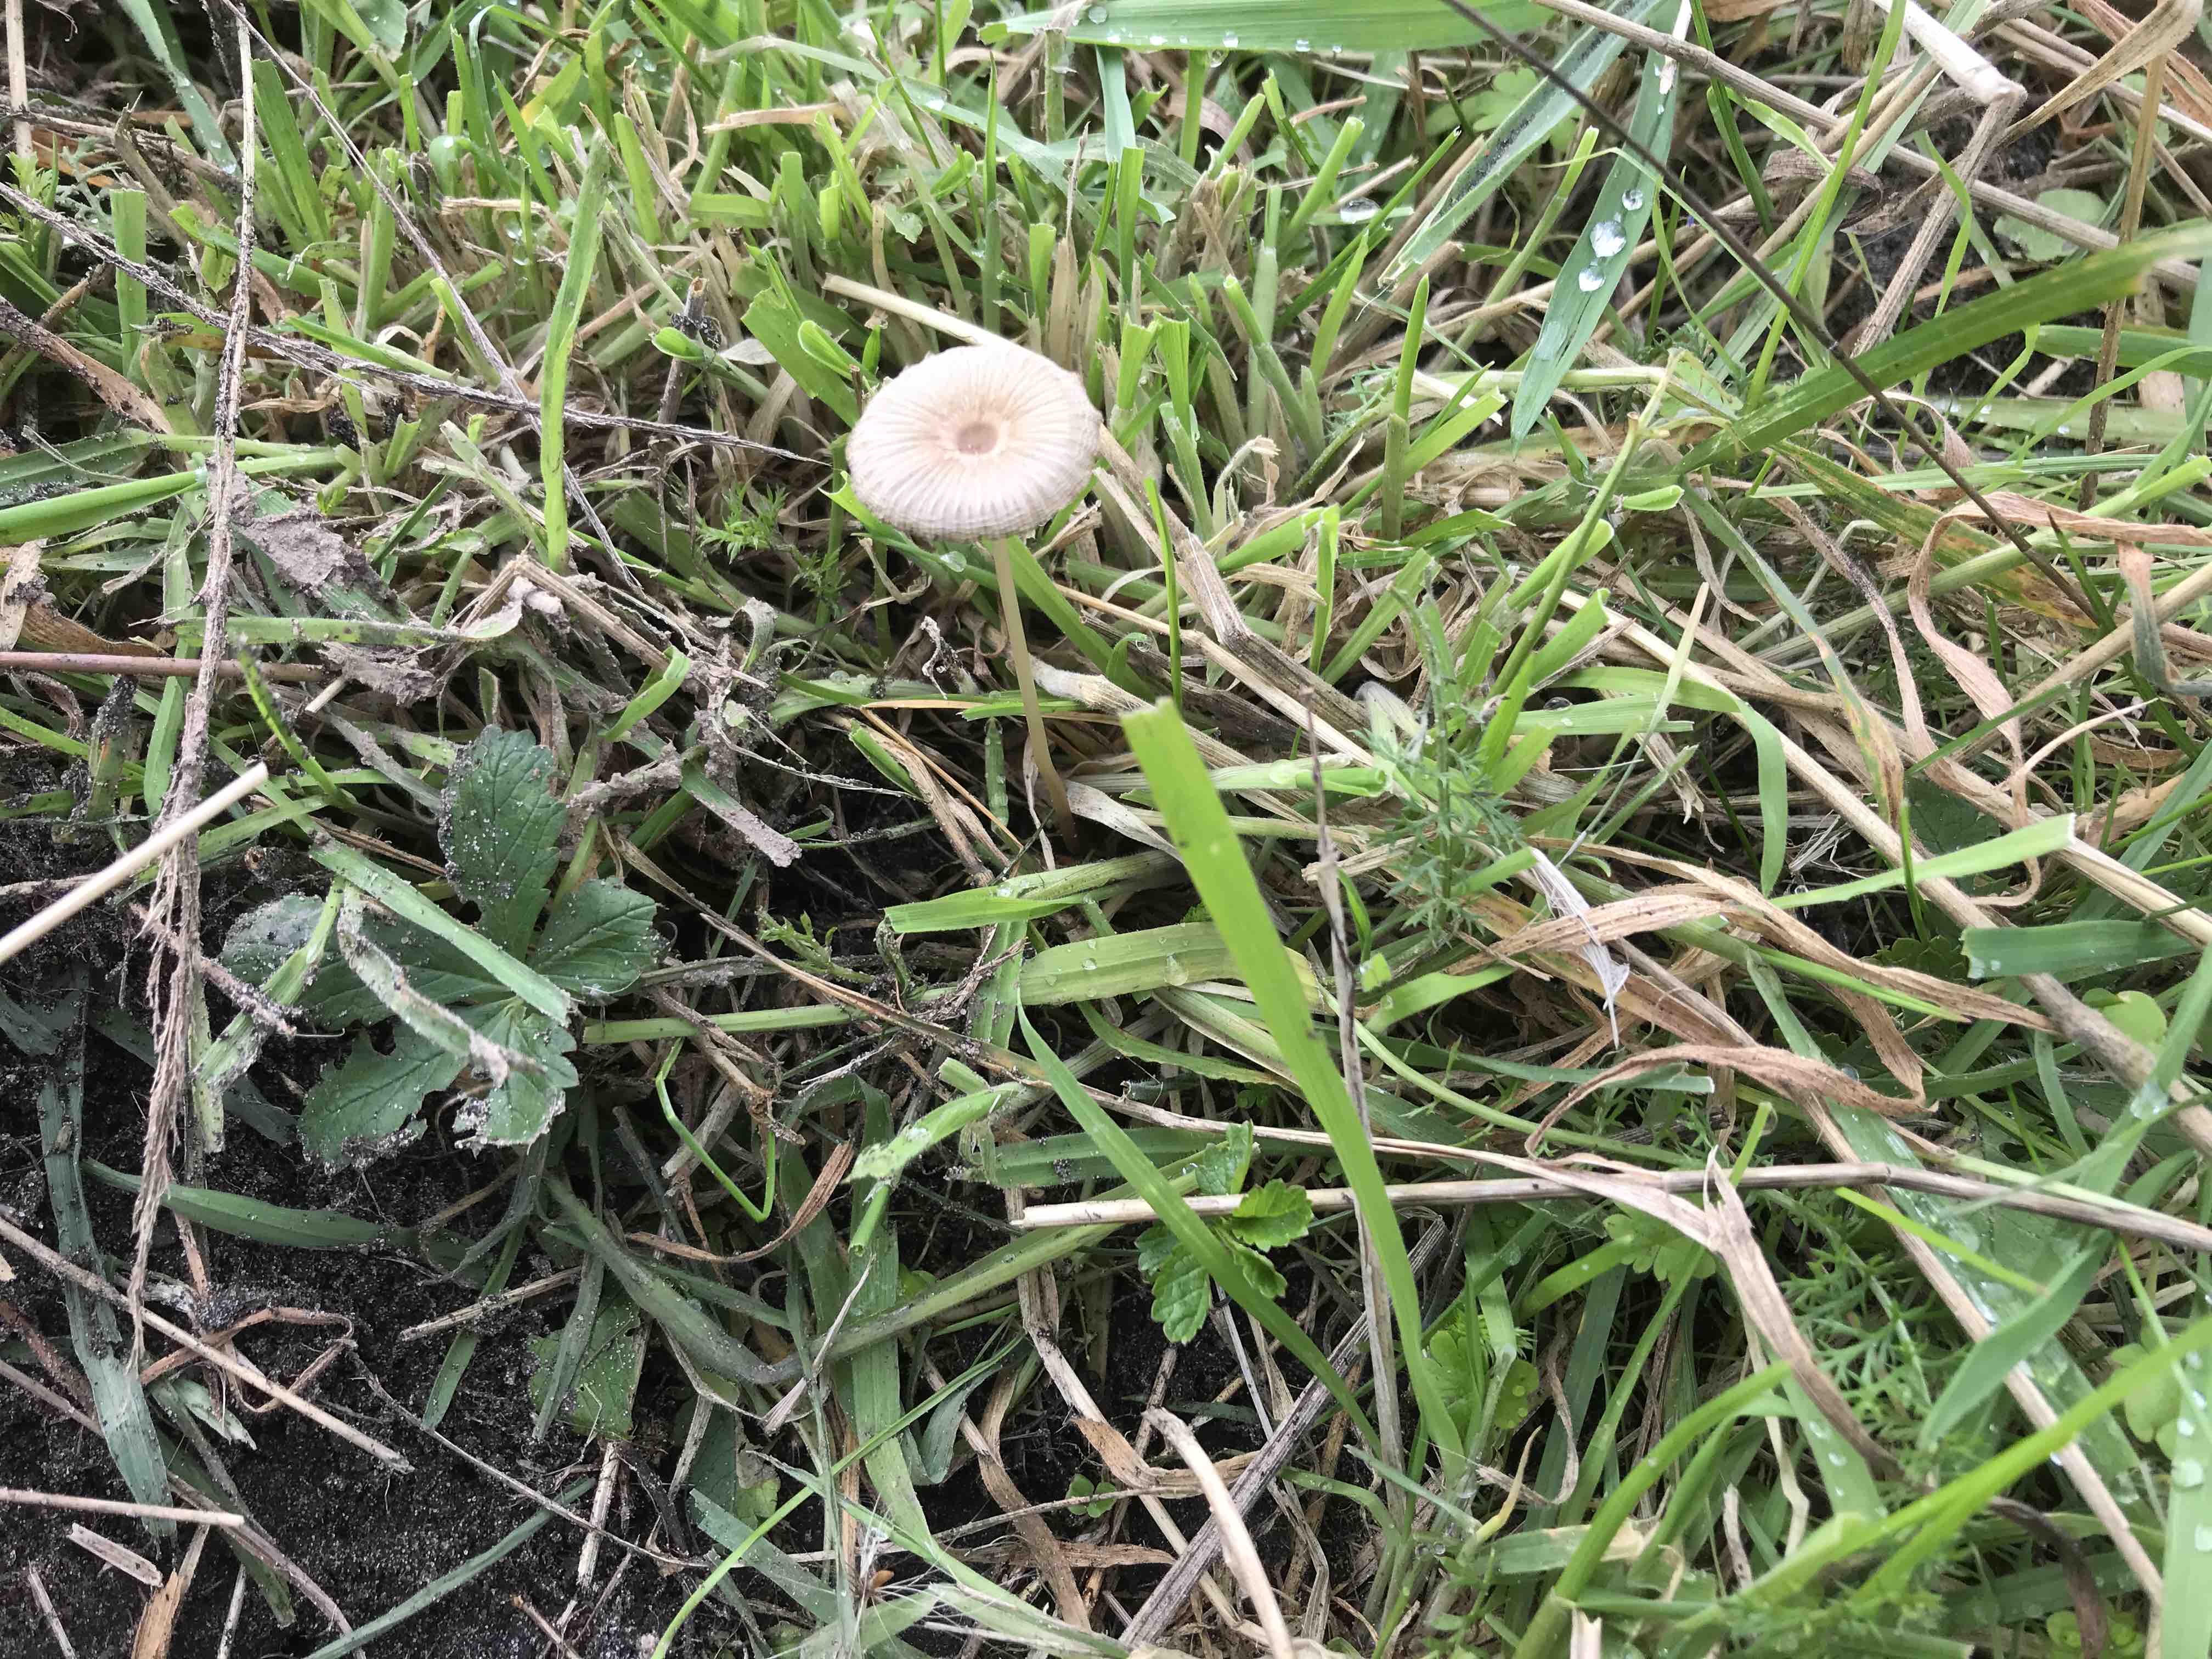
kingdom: Fungi
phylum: Basidiomycota
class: Agaricomycetes
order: Agaricales
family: Psathyrellaceae
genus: Parasola
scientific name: Parasola
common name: hjulhat
